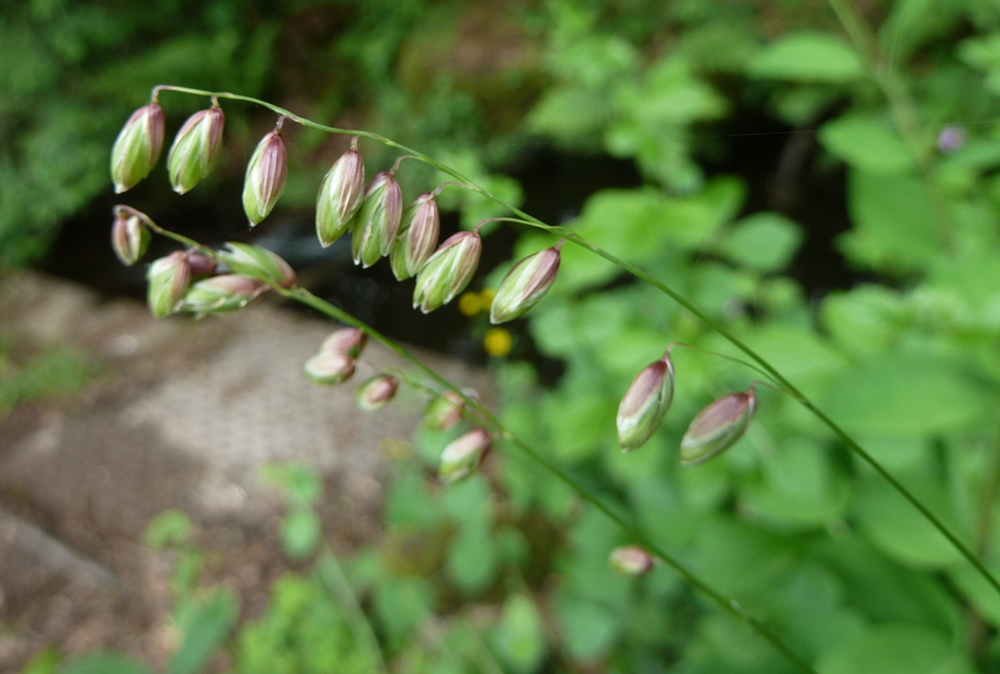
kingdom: Plantae
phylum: Tracheophyta
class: Liliopsida
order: Poales
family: Poaceae
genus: Melica
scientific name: Melica nutans
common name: Mountain melick
